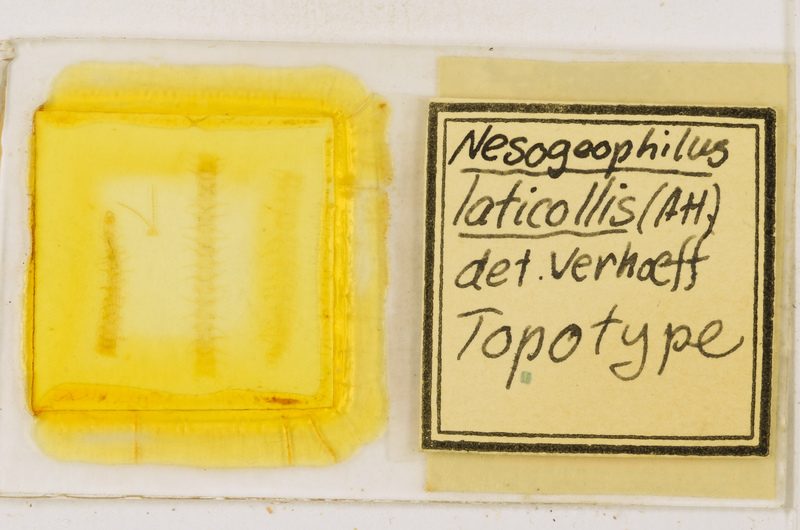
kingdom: Animalia
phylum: Arthropoda
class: Chilopoda
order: Geophilomorpha
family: Geophilidae
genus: Tuoba
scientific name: Tuoba
